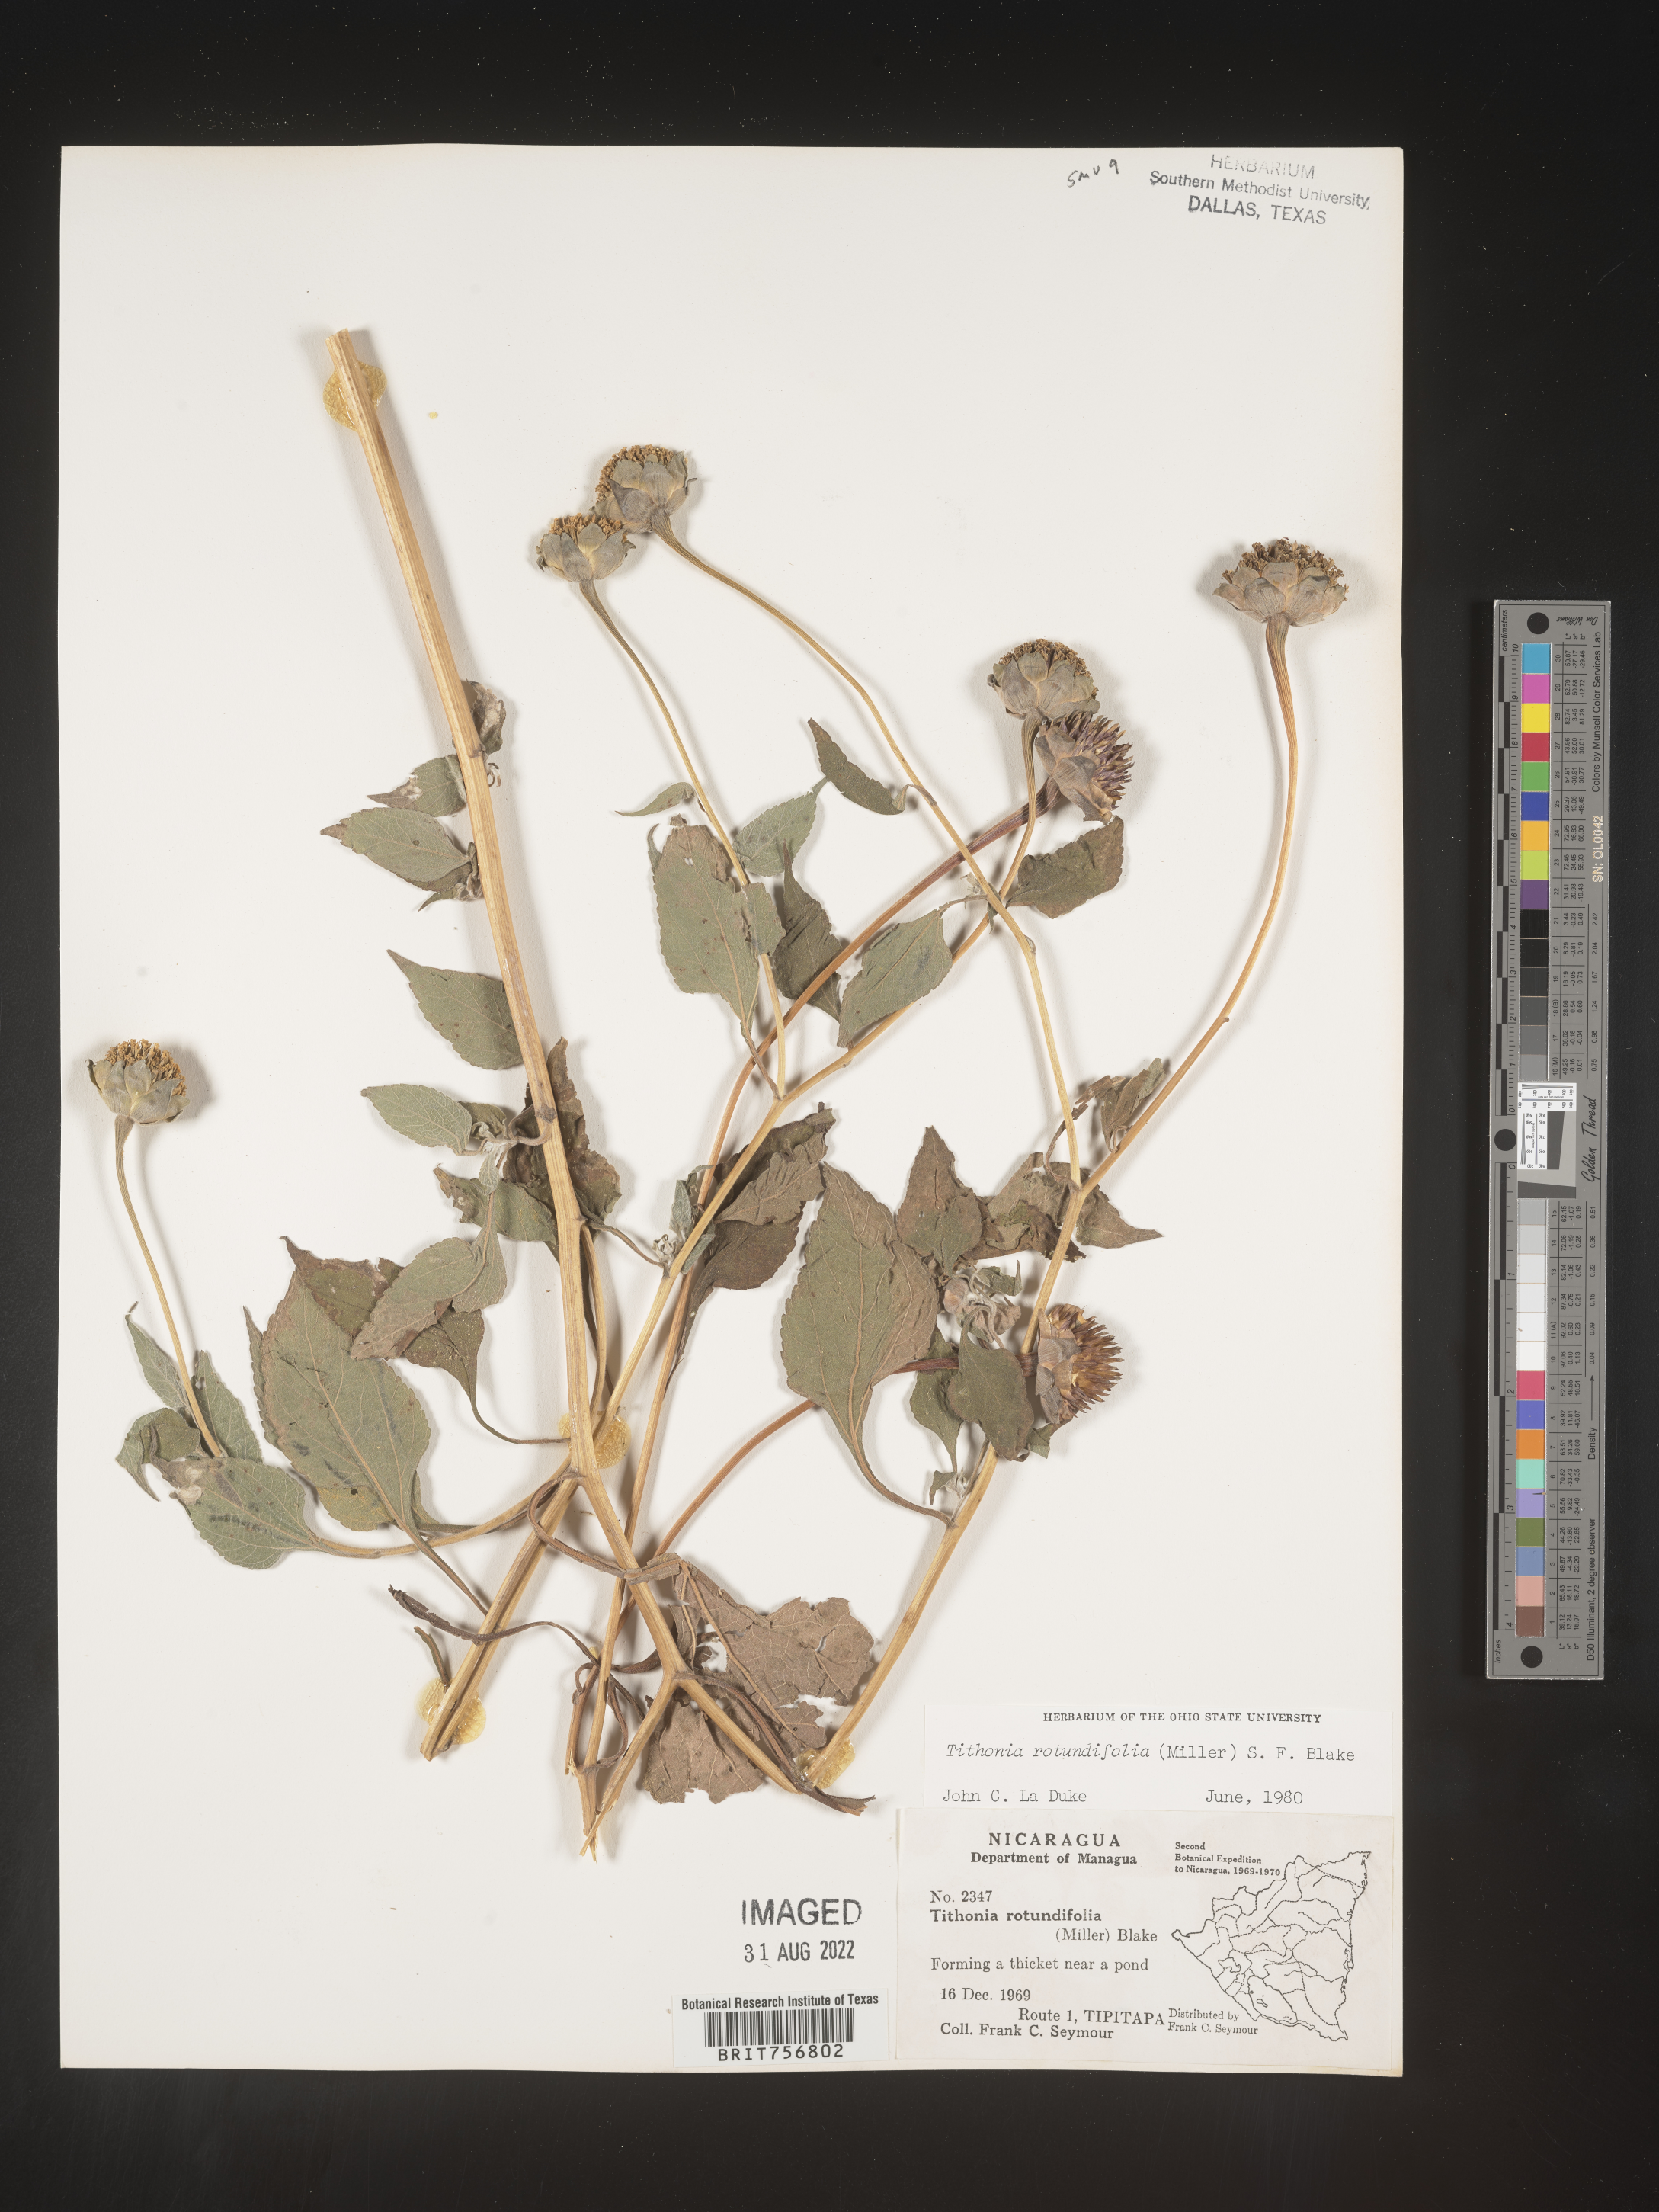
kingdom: Plantae
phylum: Tracheophyta
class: Magnoliopsida
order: Asterales
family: Asteraceae
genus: Tithonia
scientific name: Tithonia
